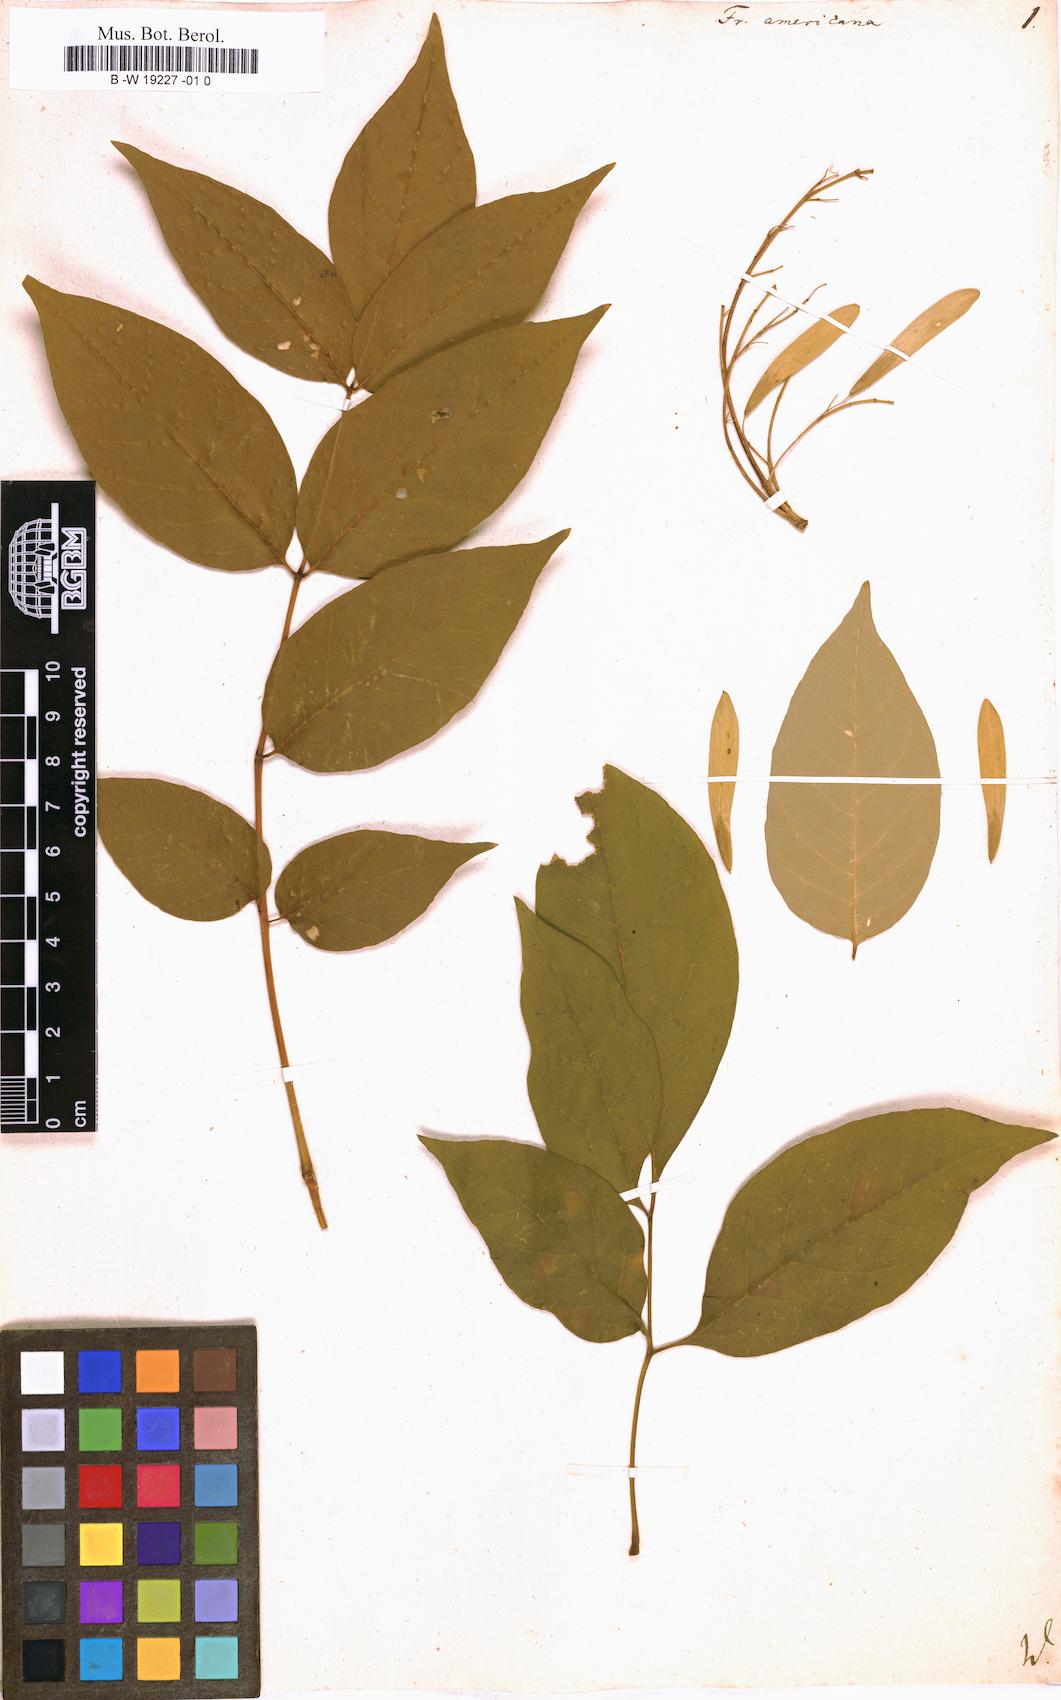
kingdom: Plantae
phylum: Tracheophyta
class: Magnoliopsida
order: Lamiales
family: Oleaceae
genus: Fraxinus
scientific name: Fraxinus americana
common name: White ash
